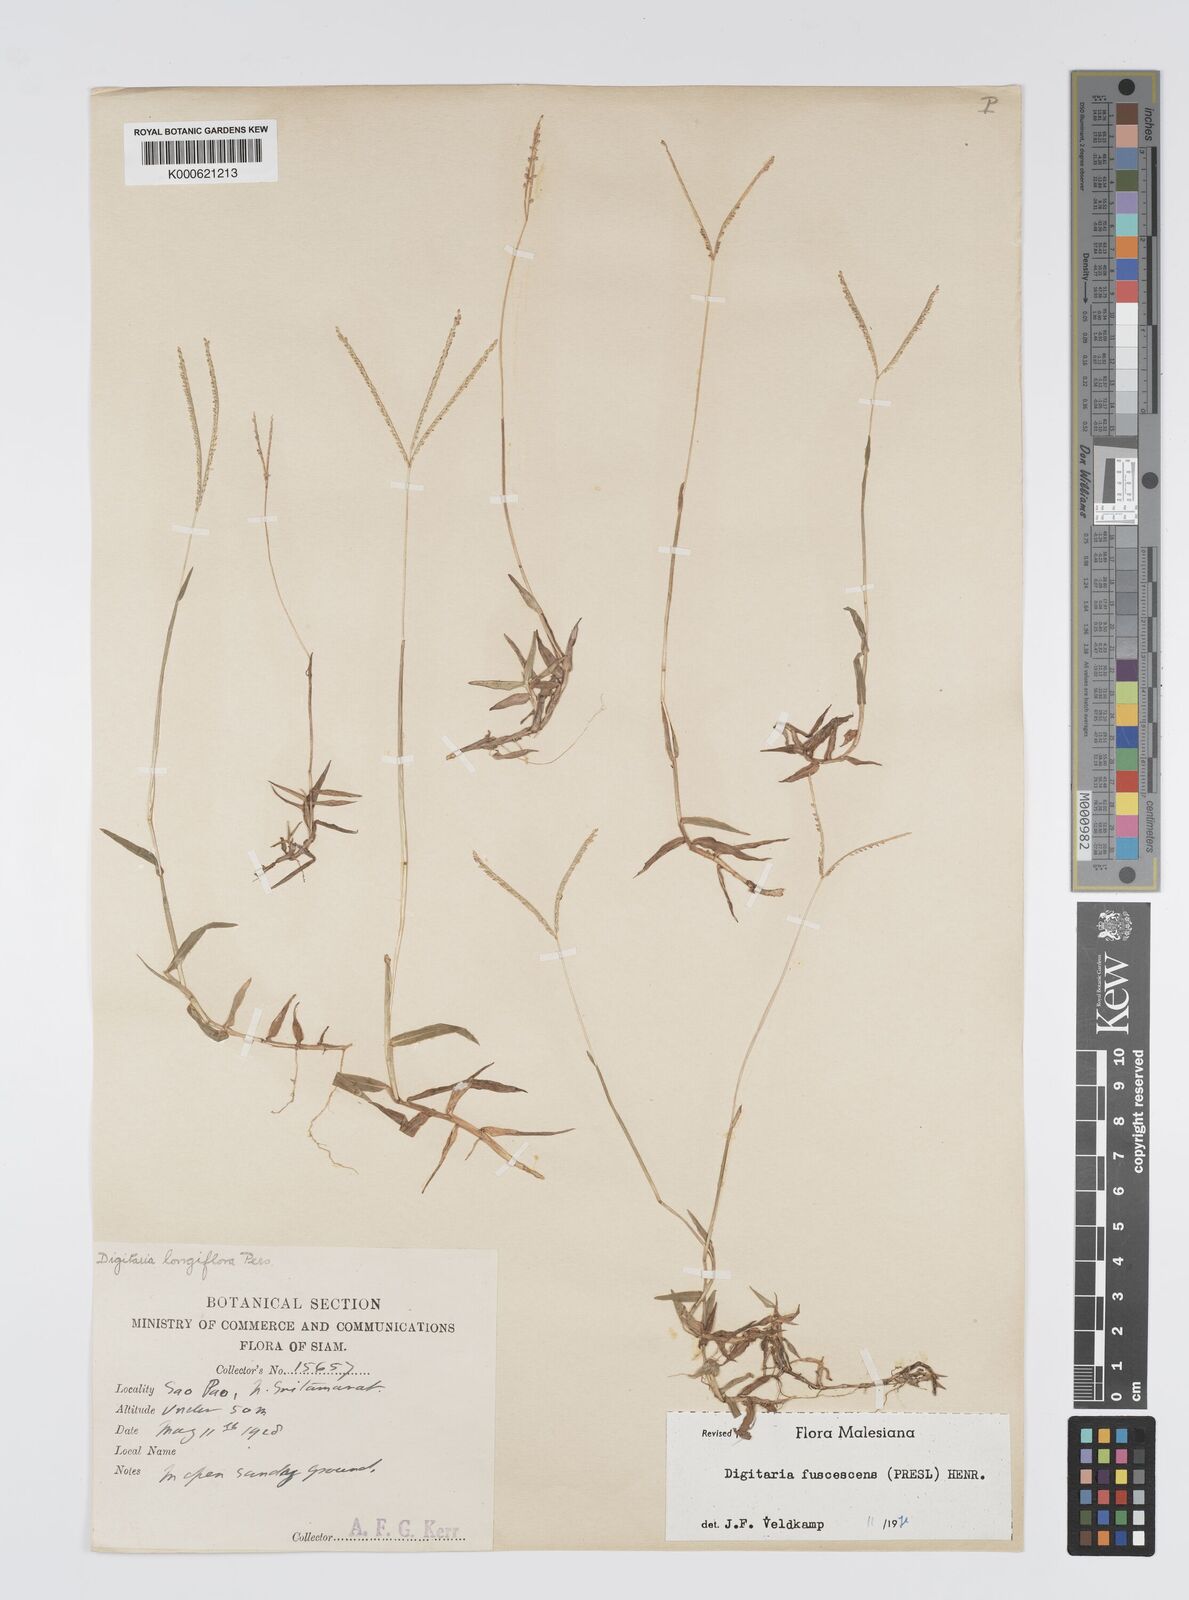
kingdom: Plantae
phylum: Tracheophyta
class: Liliopsida
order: Poales
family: Poaceae
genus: Digitaria
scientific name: Digitaria fuscescens
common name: Yellow crabgrass
